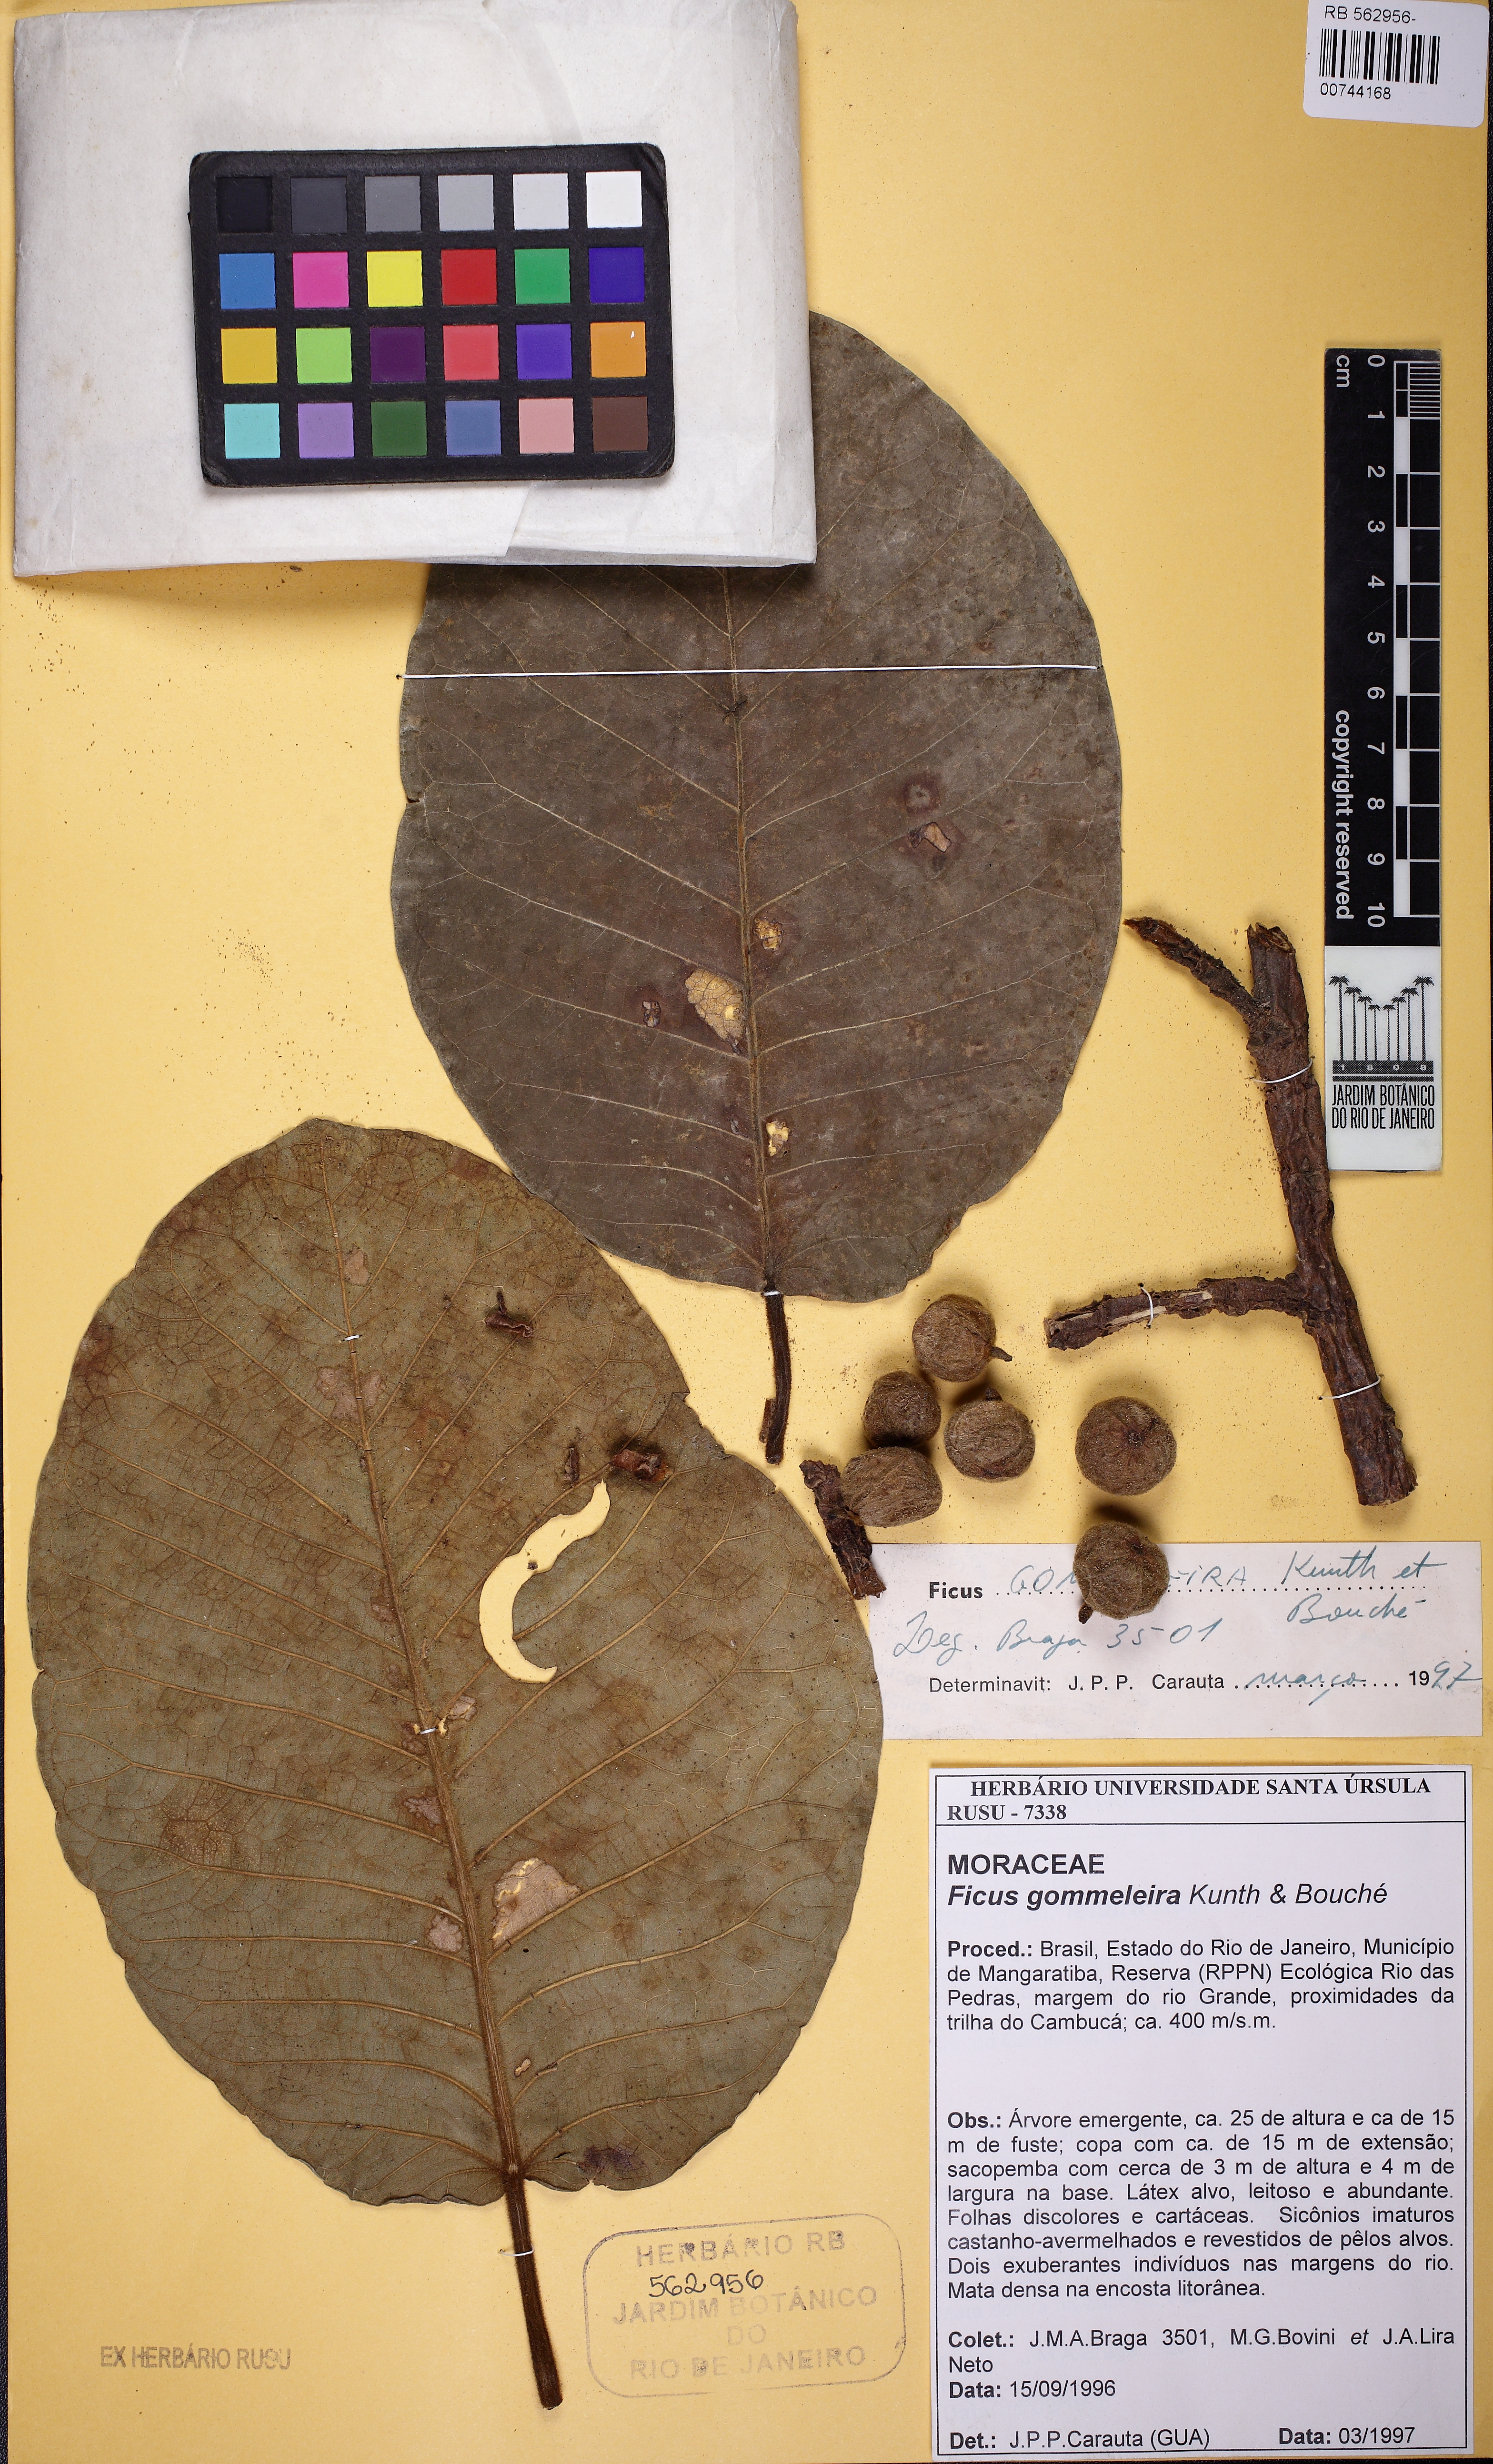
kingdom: Plantae
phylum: Tracheophyta
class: Magnoliopsida
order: Rosales
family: Moraceae
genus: Ficus
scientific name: Ficus gomelleira
